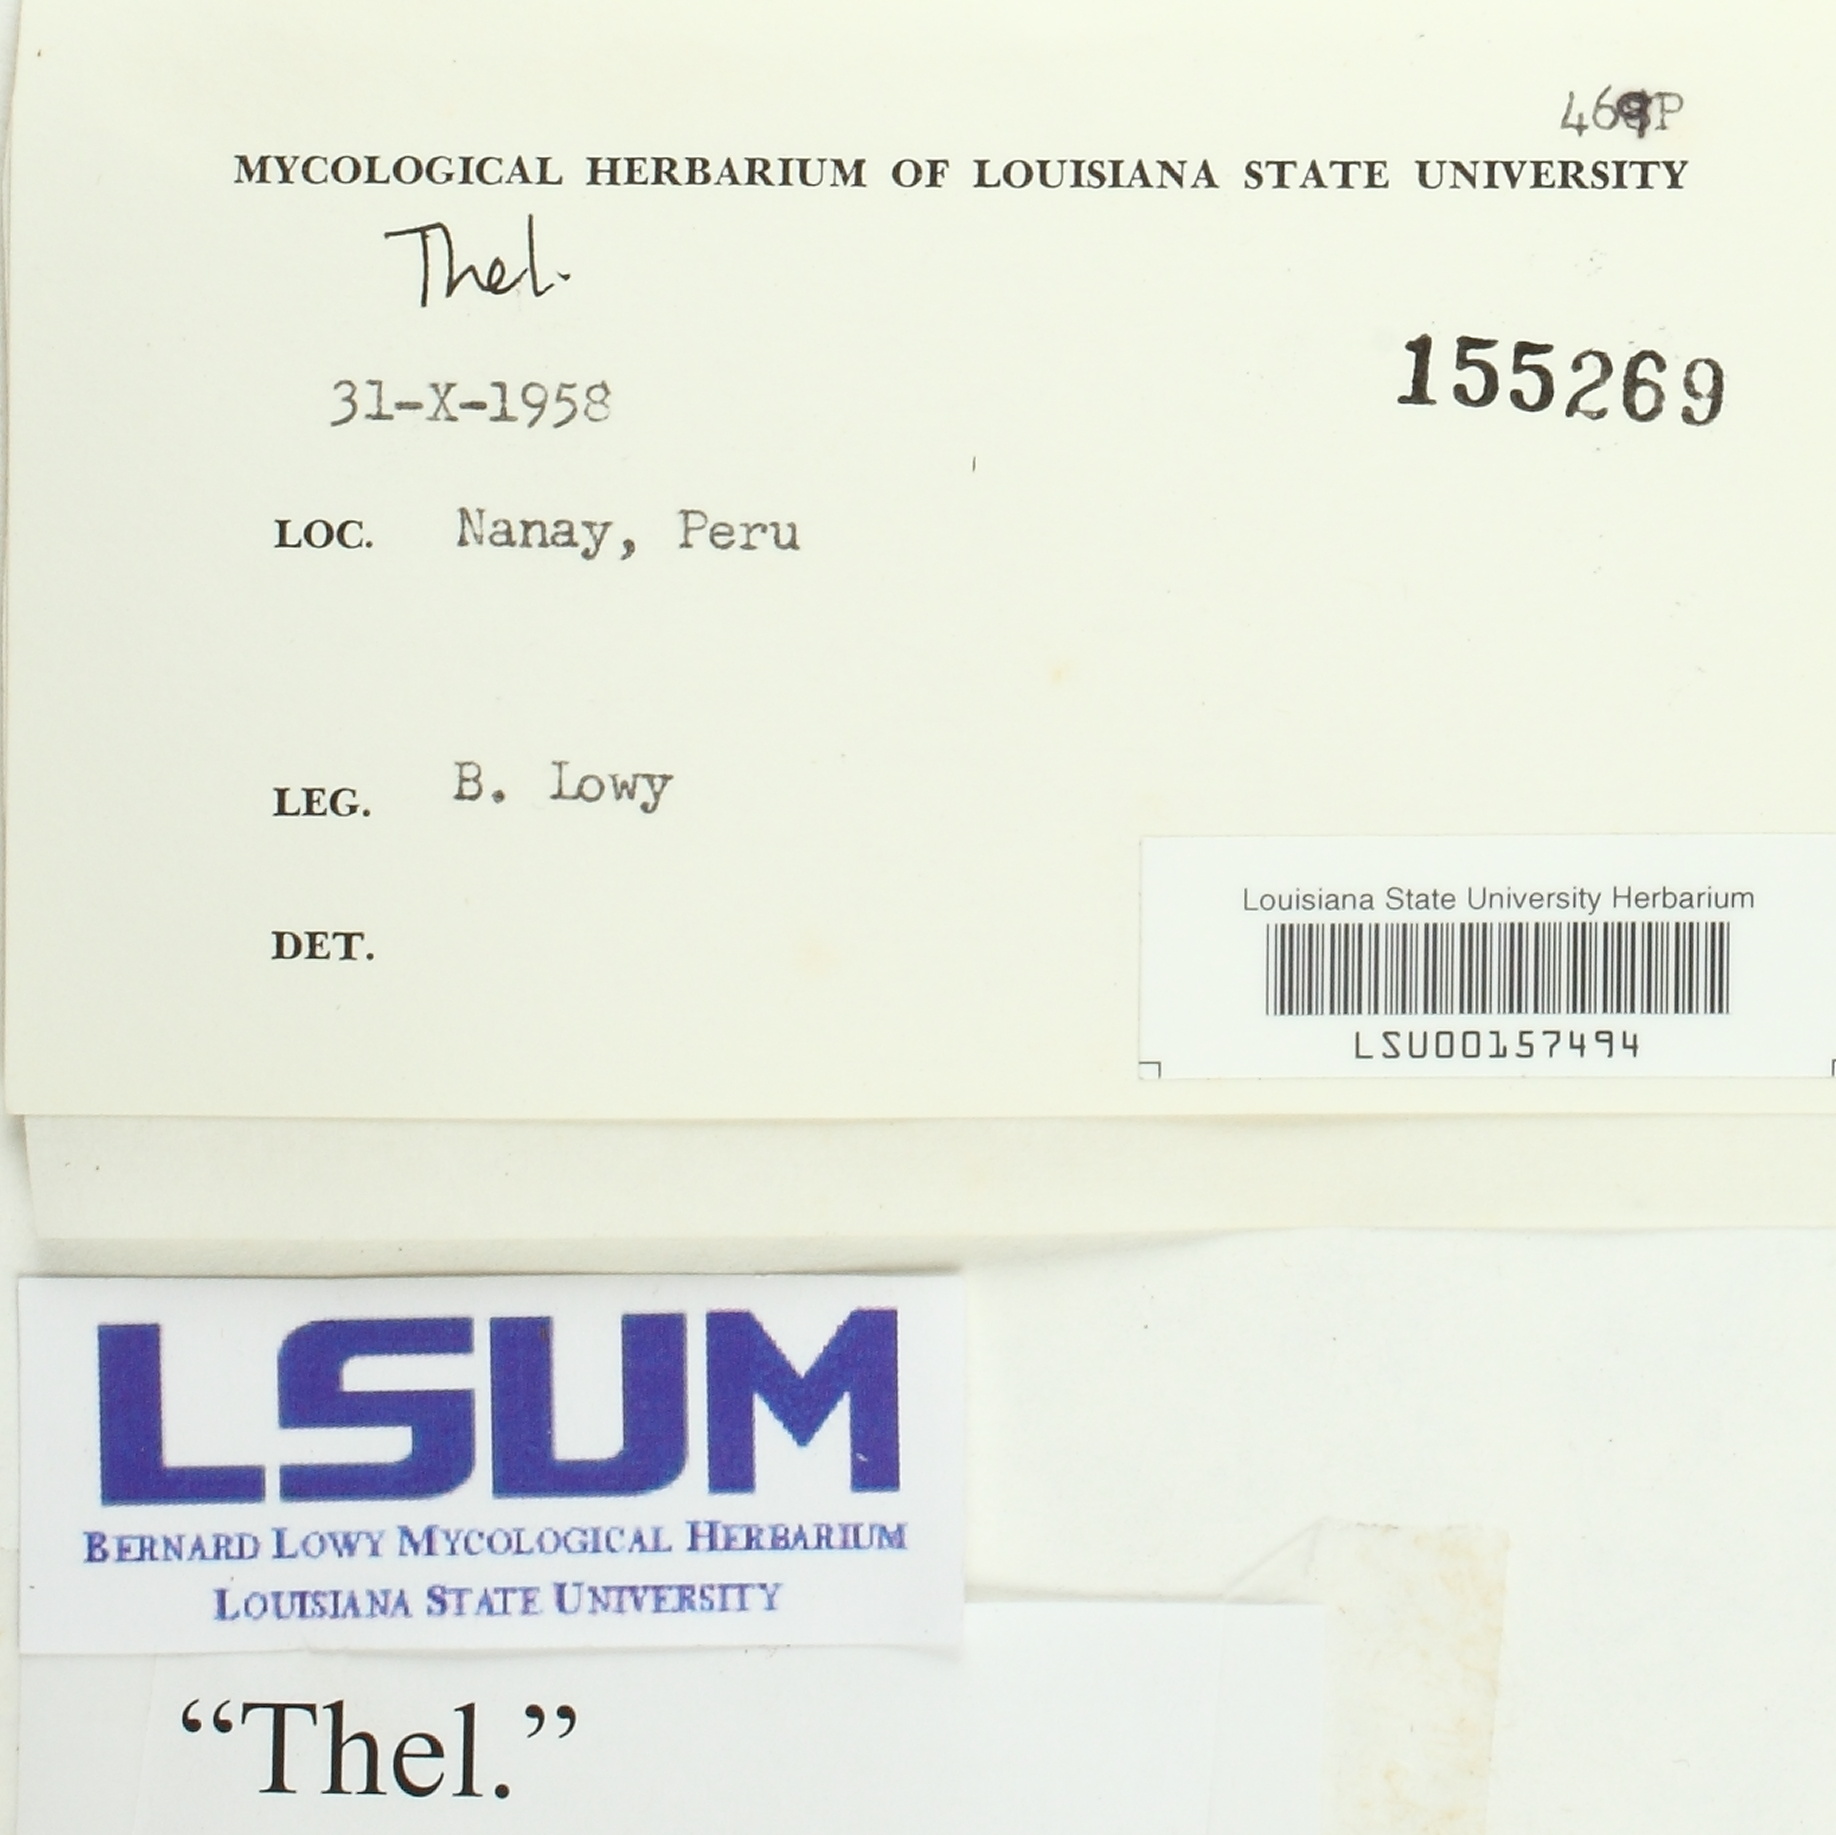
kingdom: Fungi
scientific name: Fungi
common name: Fungi
